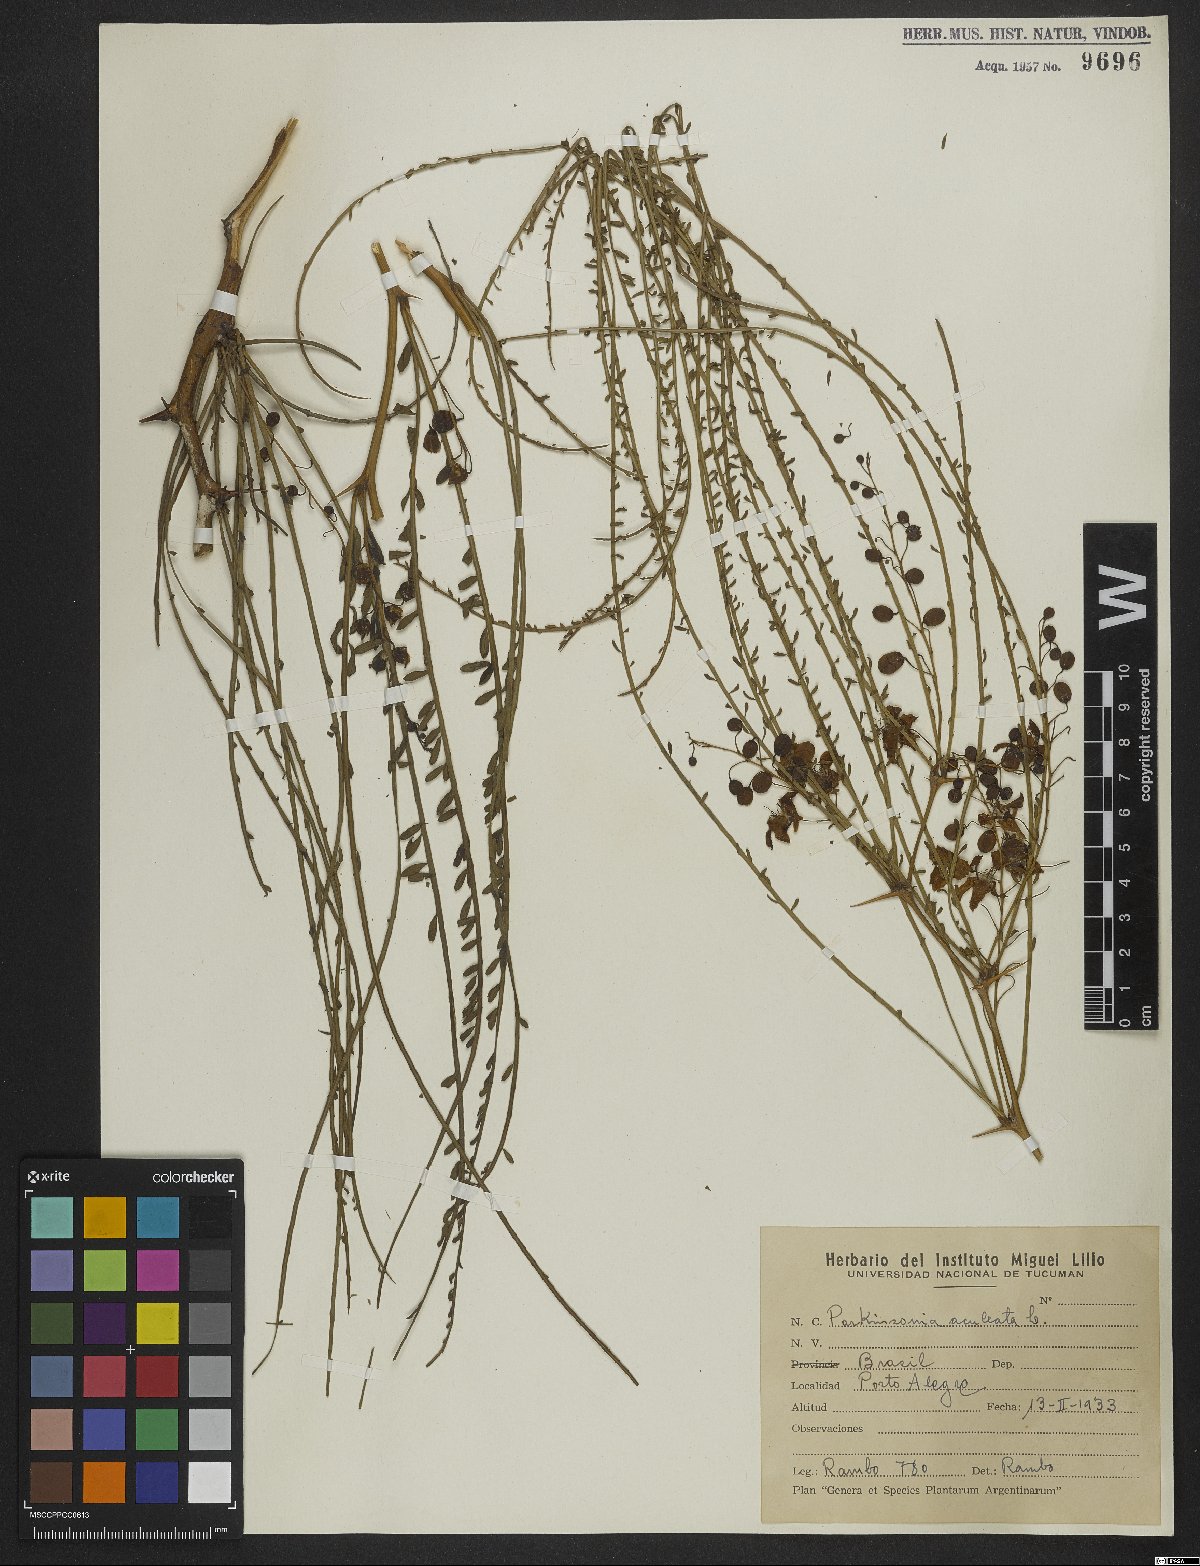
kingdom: Plantae
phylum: Tracheophyta
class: Magnoliopsida
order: Fabales
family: Fabaceae
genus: Parkinsonia
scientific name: Parkinsonia aculeata
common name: Jerusalem thorn
